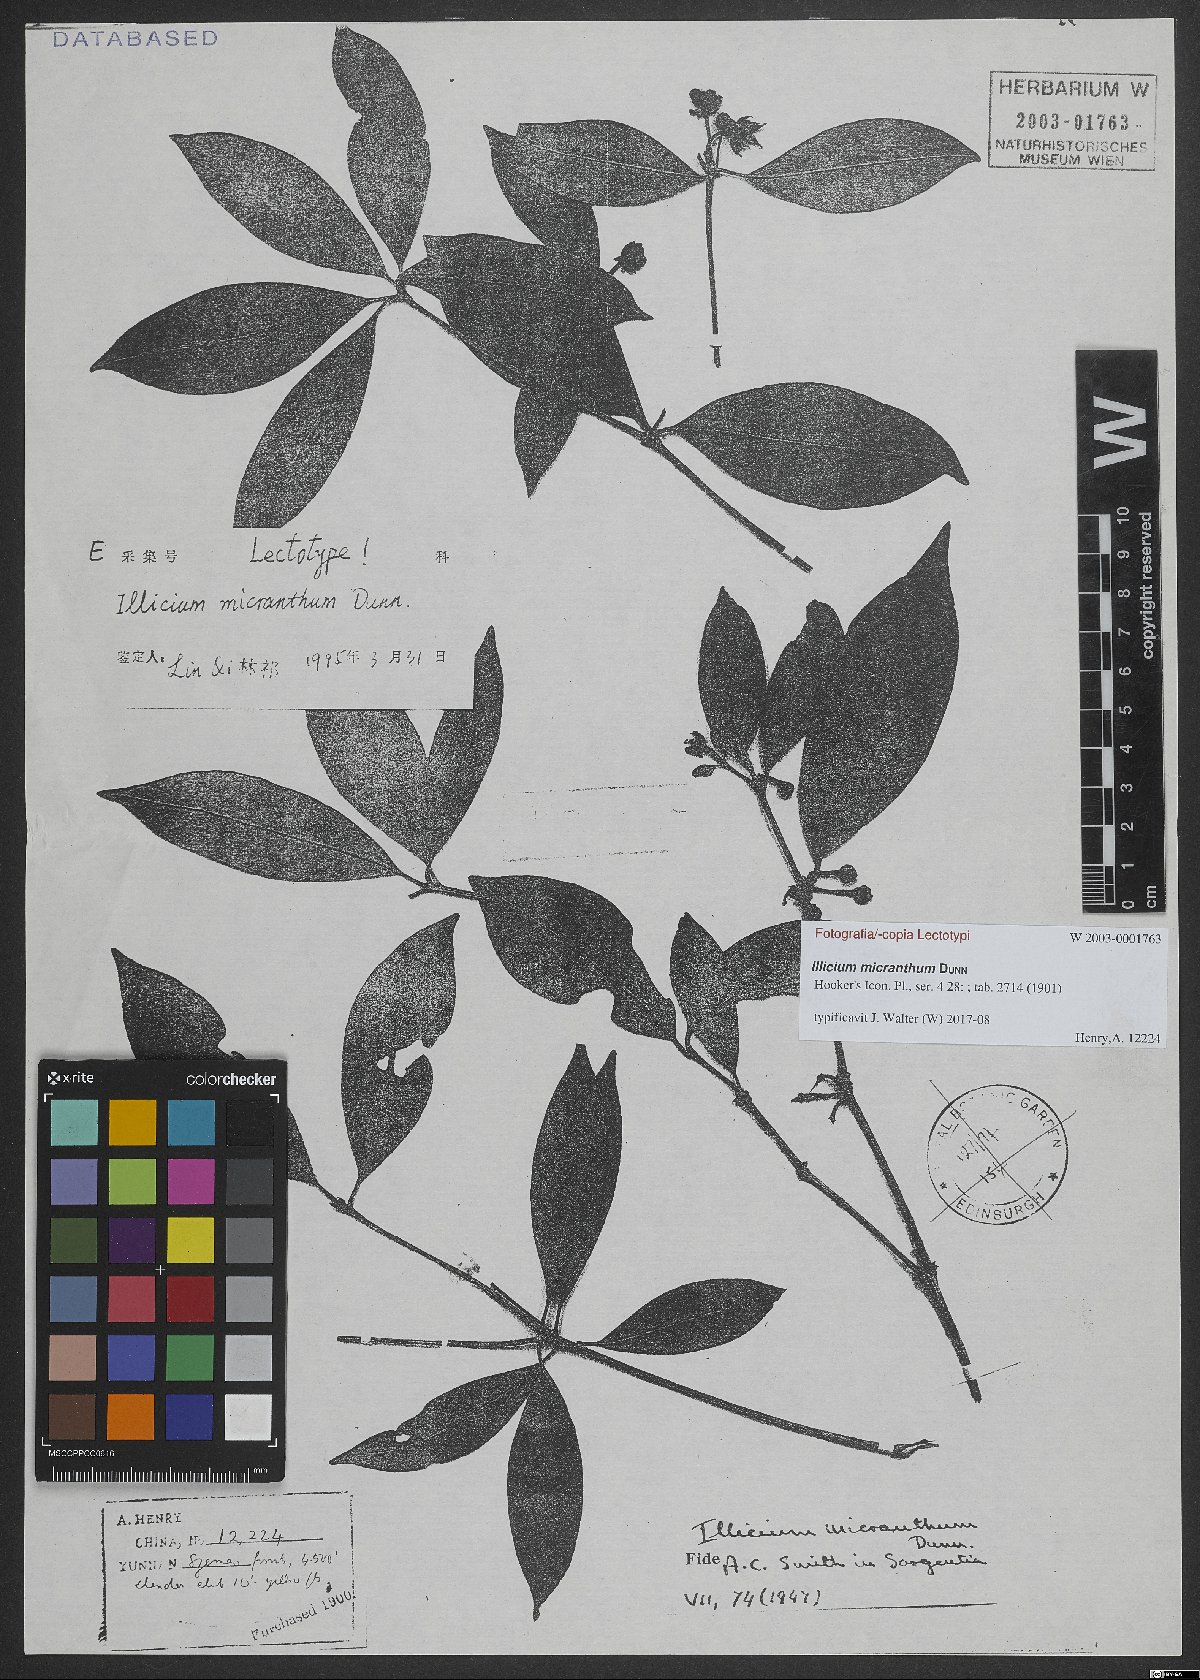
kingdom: Plantae
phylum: Tracheophyta
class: Magnoliopsida
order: Austrobaileyales
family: Schisandraceae
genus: Illicium
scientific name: Illicium micranthum
